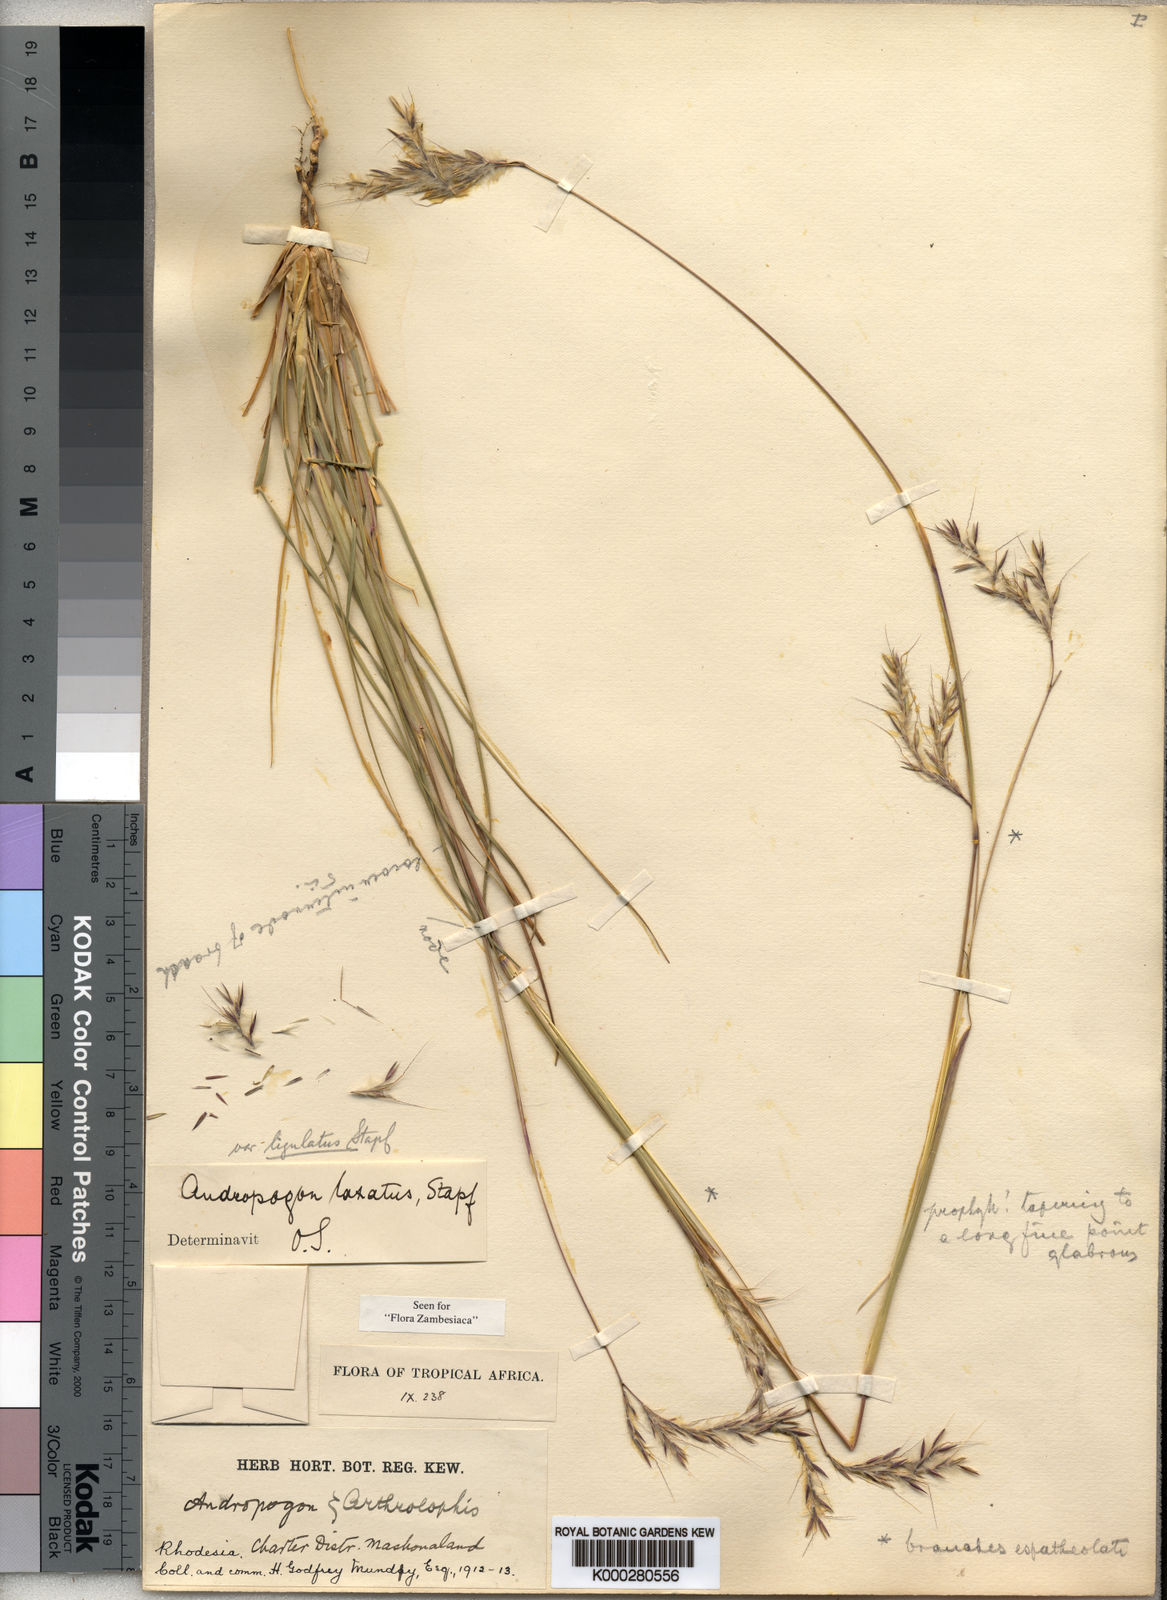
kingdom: Plantae
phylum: Tracheophyta
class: Liliopsida
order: Poales
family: Poaceae
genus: Andropogon
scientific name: Andropogon ligulatus
